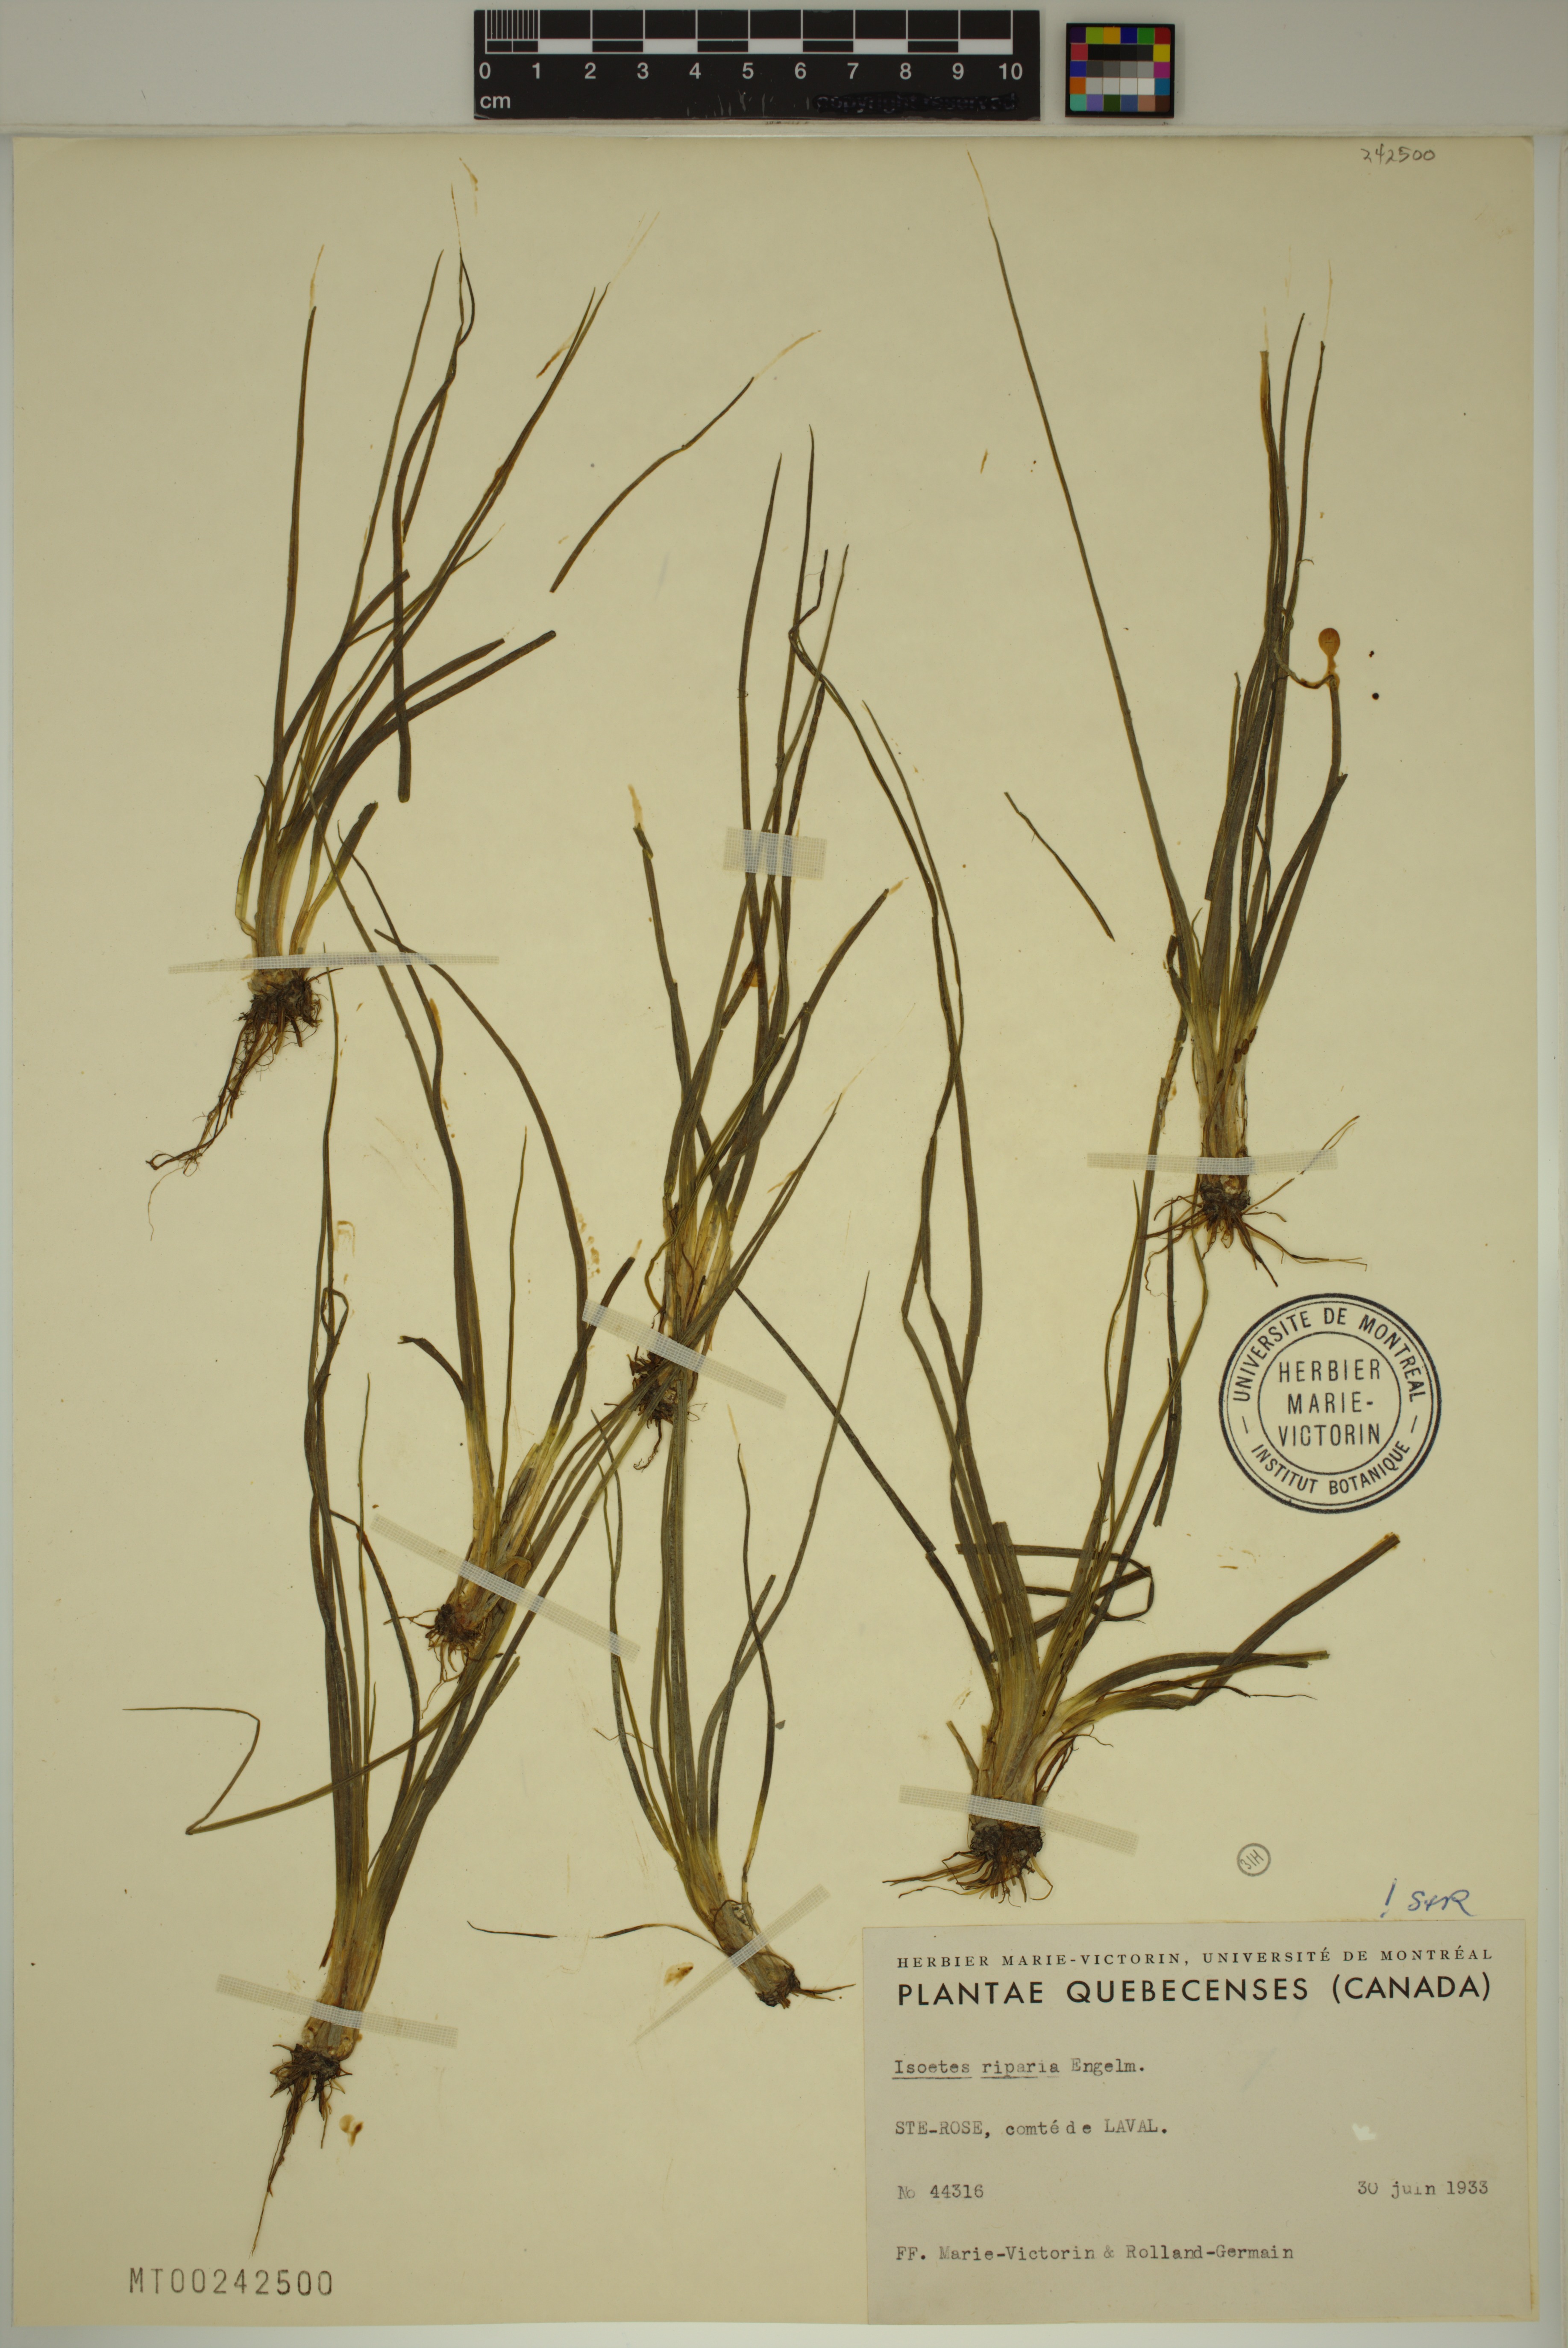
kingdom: Plantae
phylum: Tracheophyta
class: Lycopodiopsida
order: Isoetales
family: Isoetaceae
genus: Isoetes
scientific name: Isoetes septentrionalis
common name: Northern quillwort
